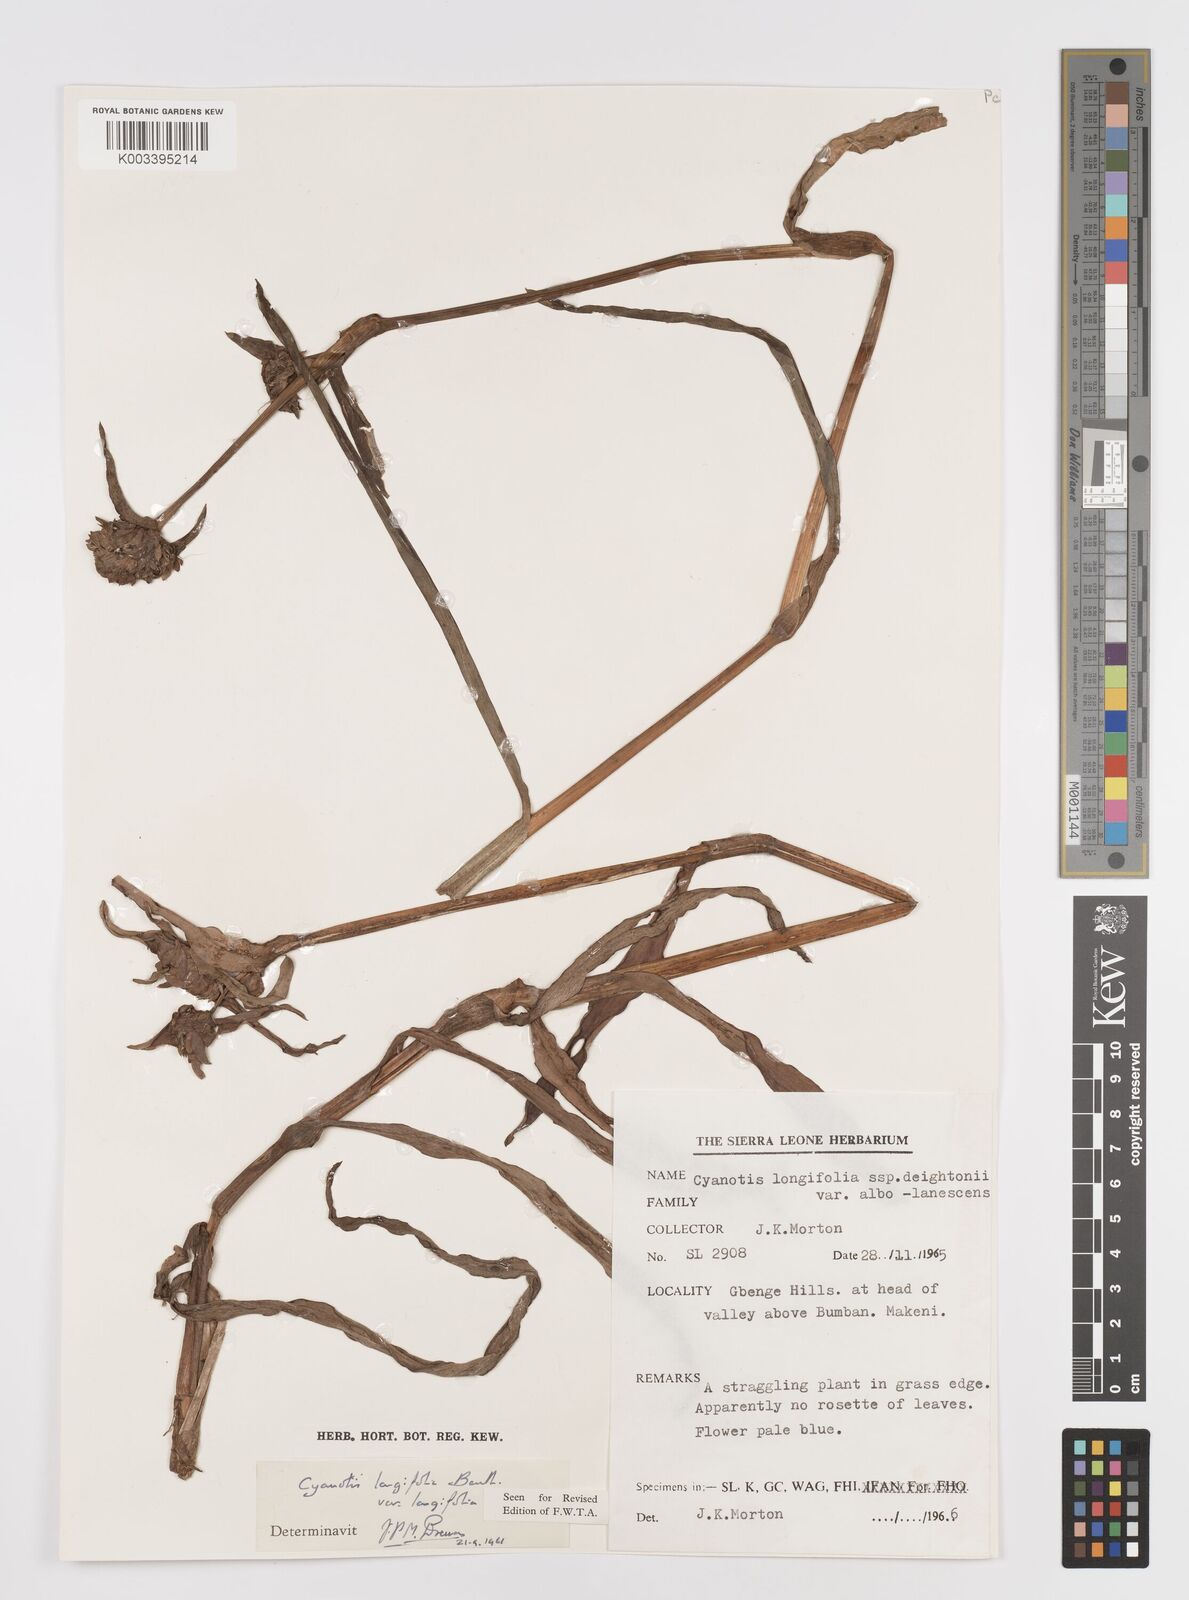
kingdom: Plantae
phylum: Tracheophyta
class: Liliopsida
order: Commelinales
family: Commelinaceae
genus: Cyanotis
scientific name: Cyanotis
